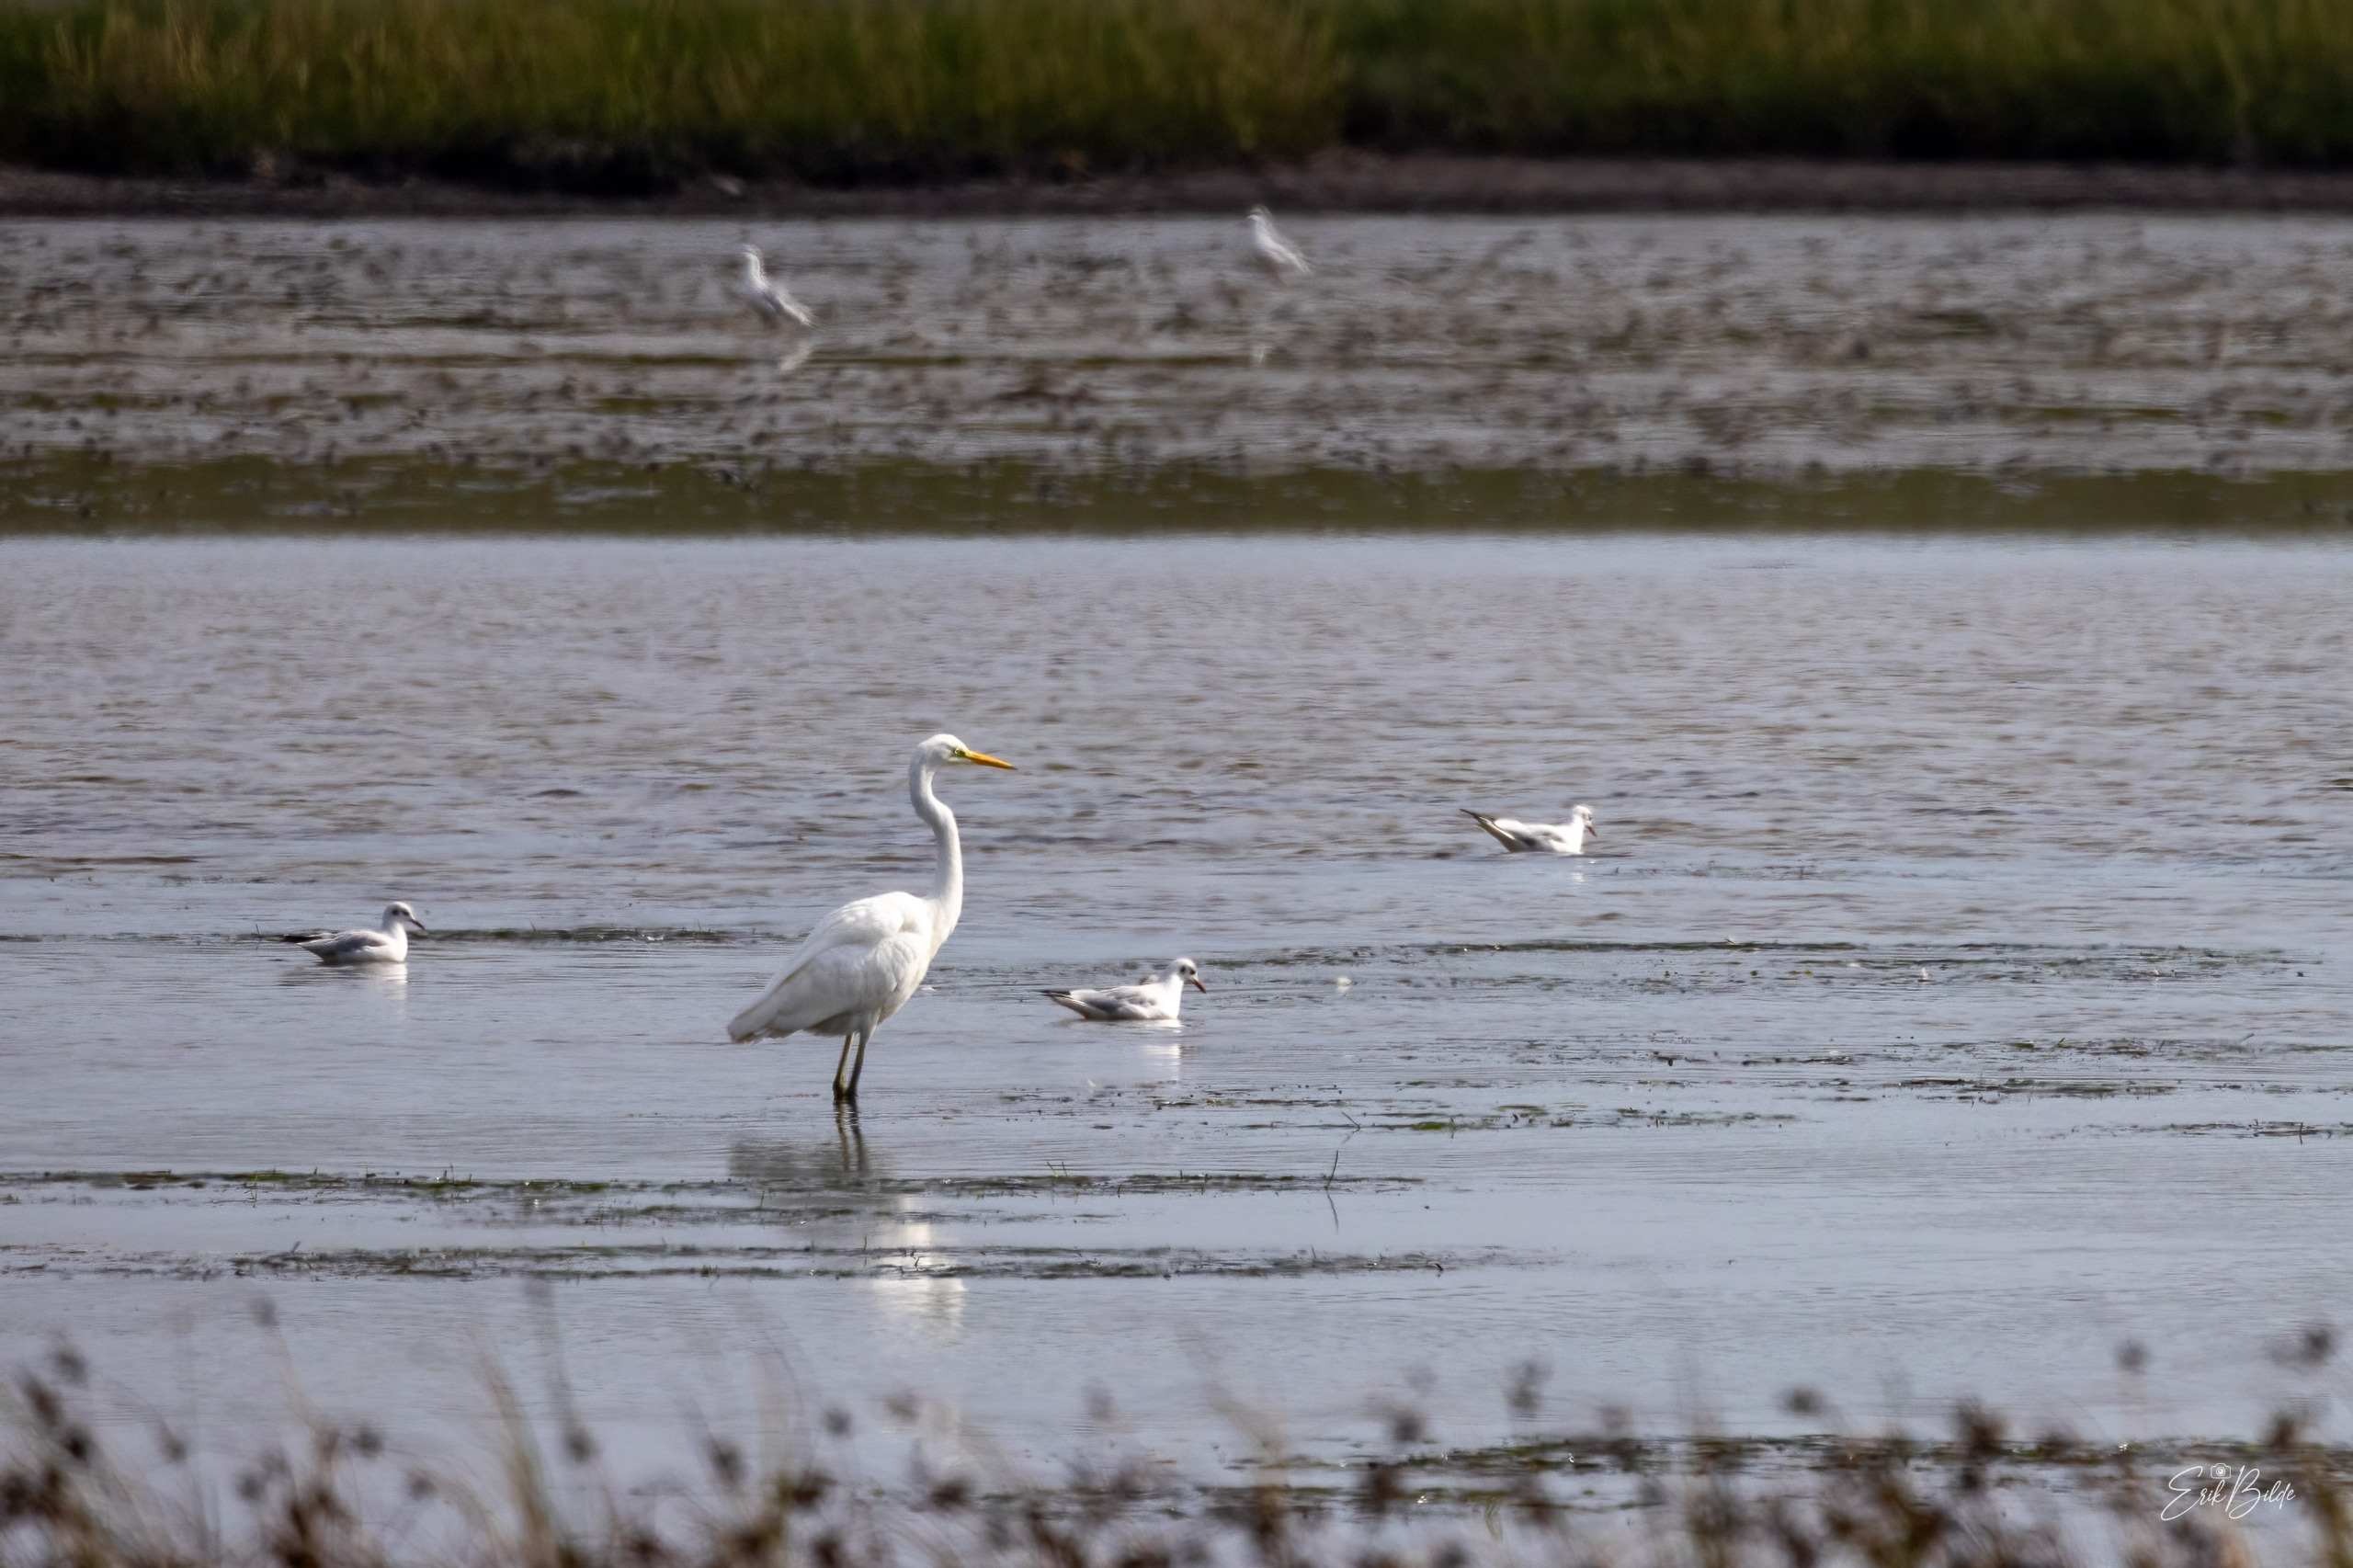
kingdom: Animalia
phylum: Chordata
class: Aves
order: Pelecaniformes
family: Ardeidae
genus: Ardea
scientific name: Ardea alba
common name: Sølvhejre
